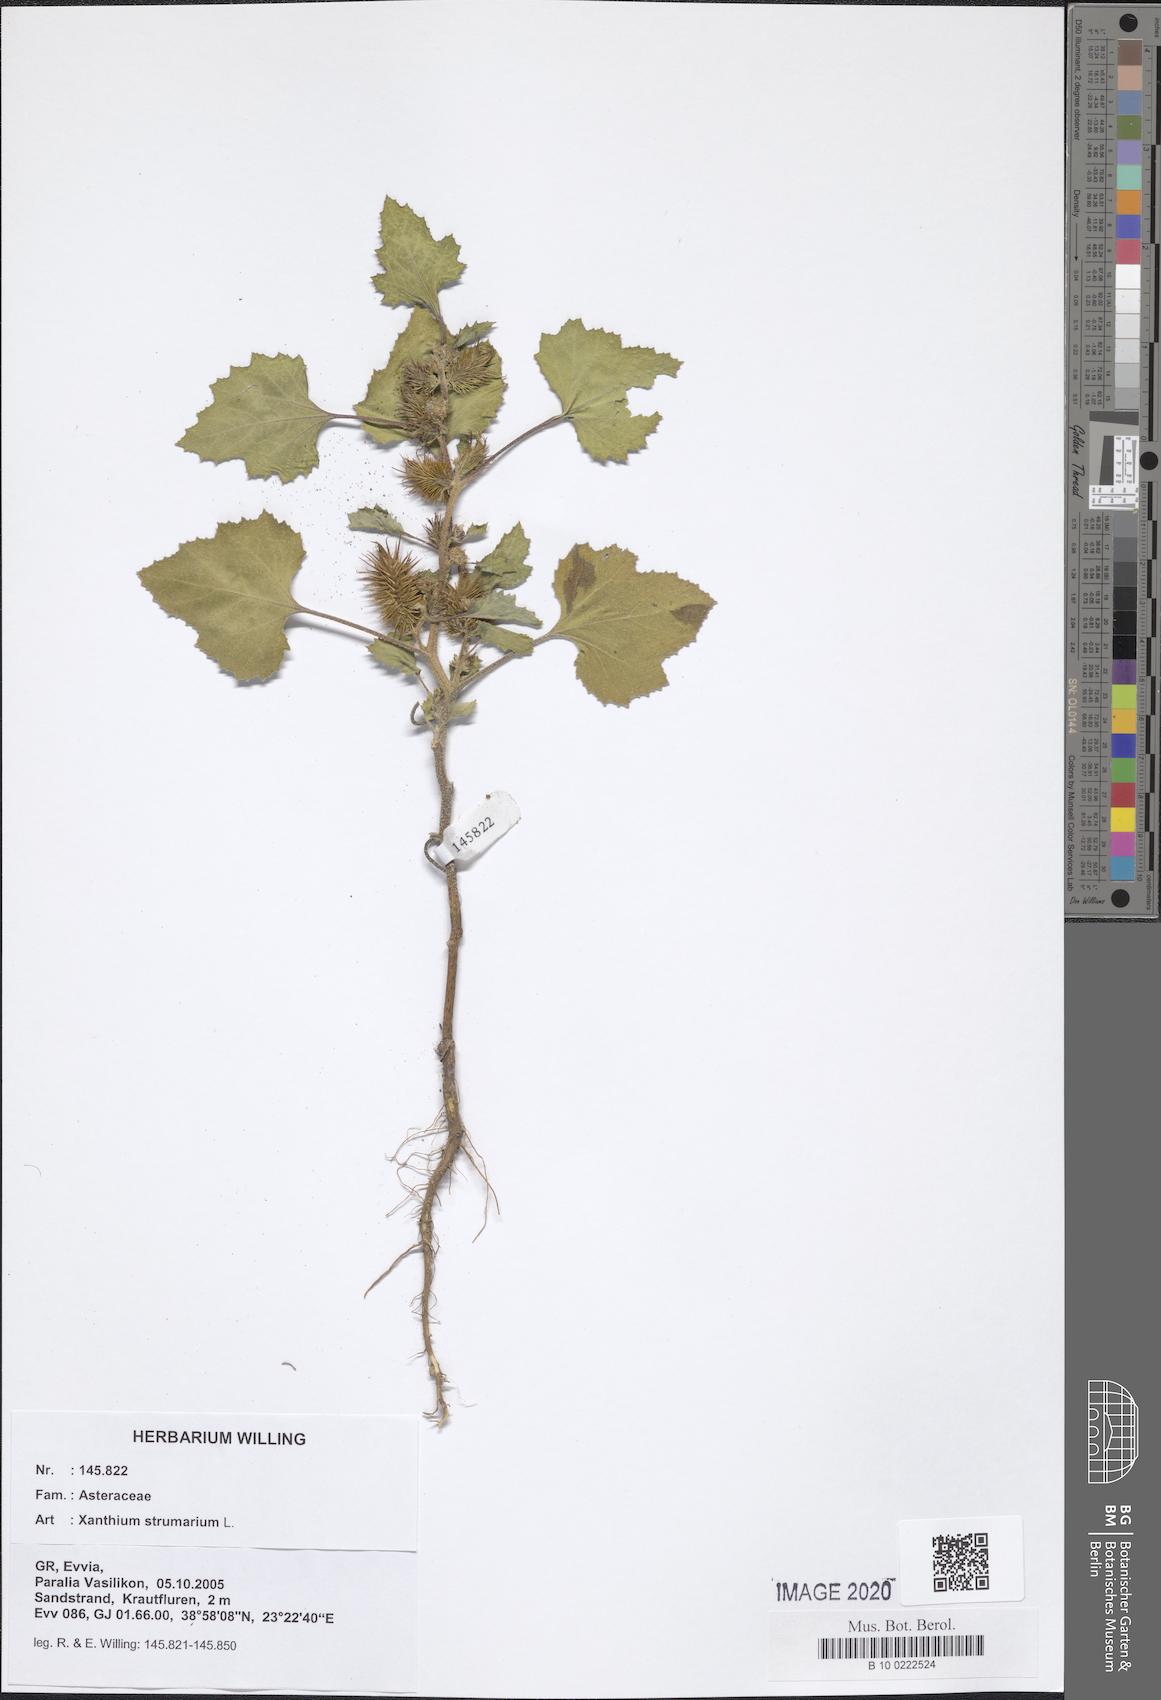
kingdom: Plantae
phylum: Tracheophyta
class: Magnoliopsida
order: Asterales
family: Asteraceae
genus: Xanthium
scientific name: Xanthium strumarium
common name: Rough cocklebur
